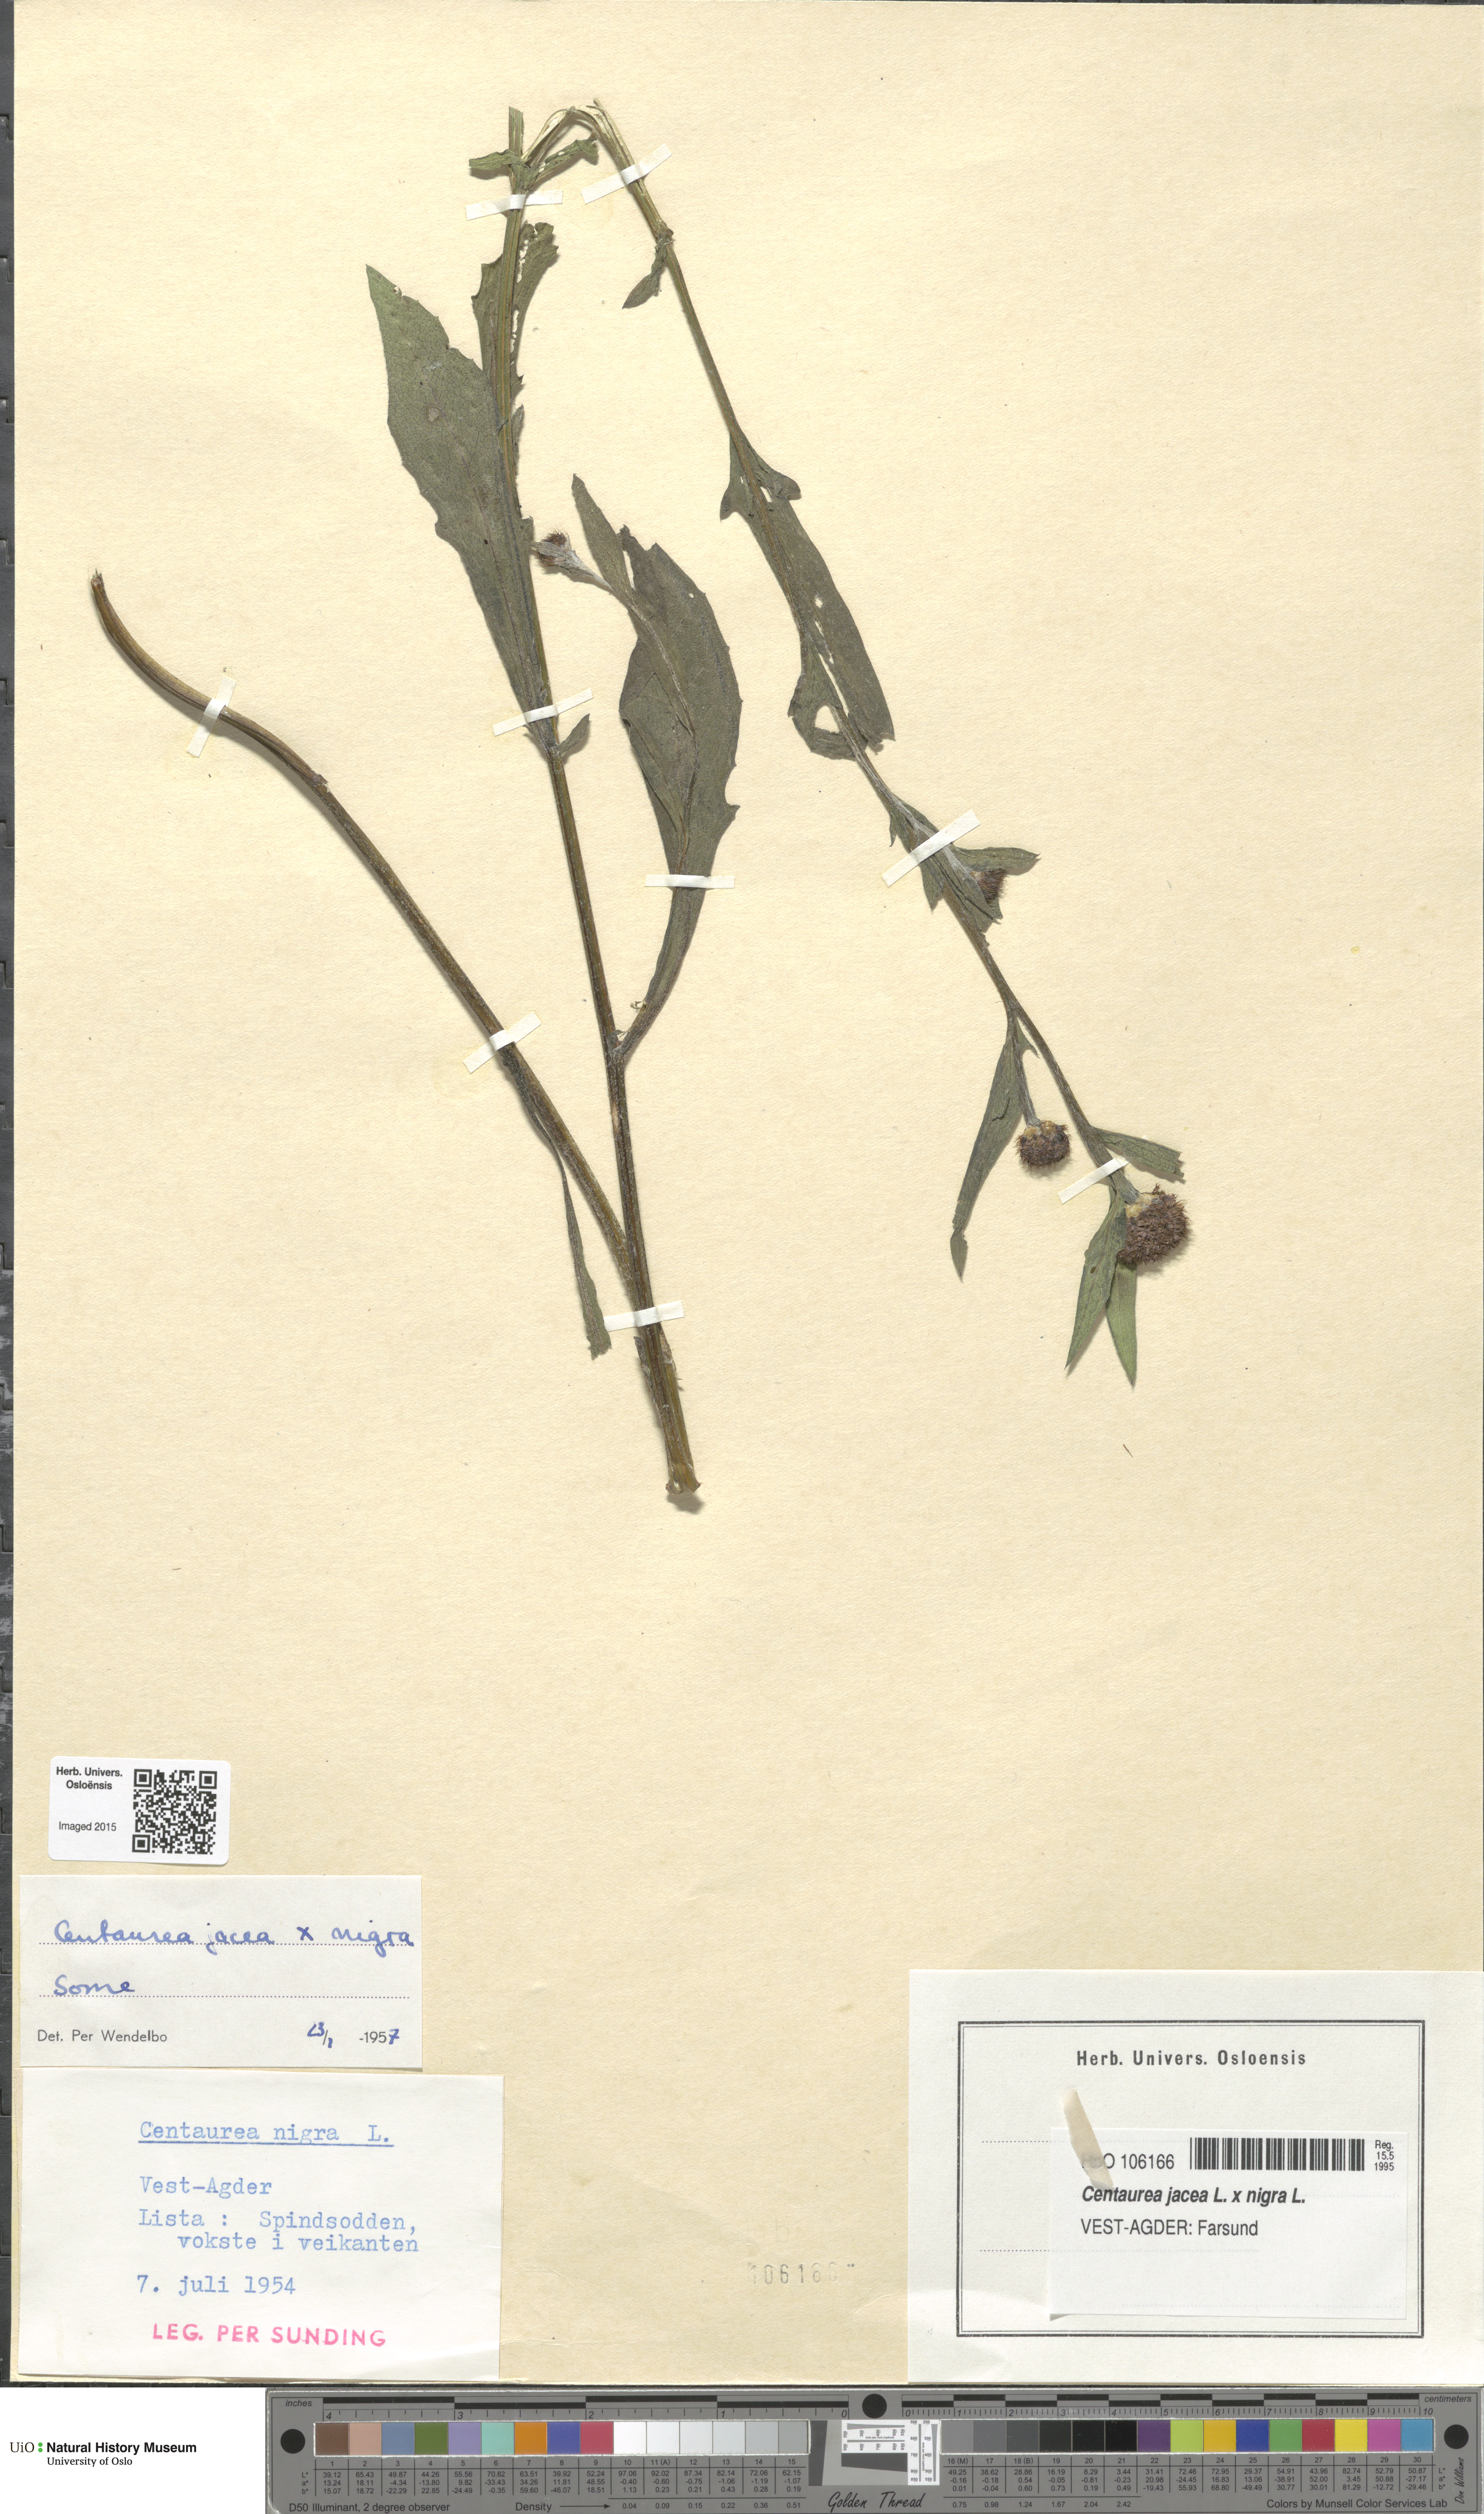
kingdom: Plantae
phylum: Tracheophyta
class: Magnoliopsida
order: Asterales
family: Asteraceae
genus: Centaurea
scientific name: Centaurea
